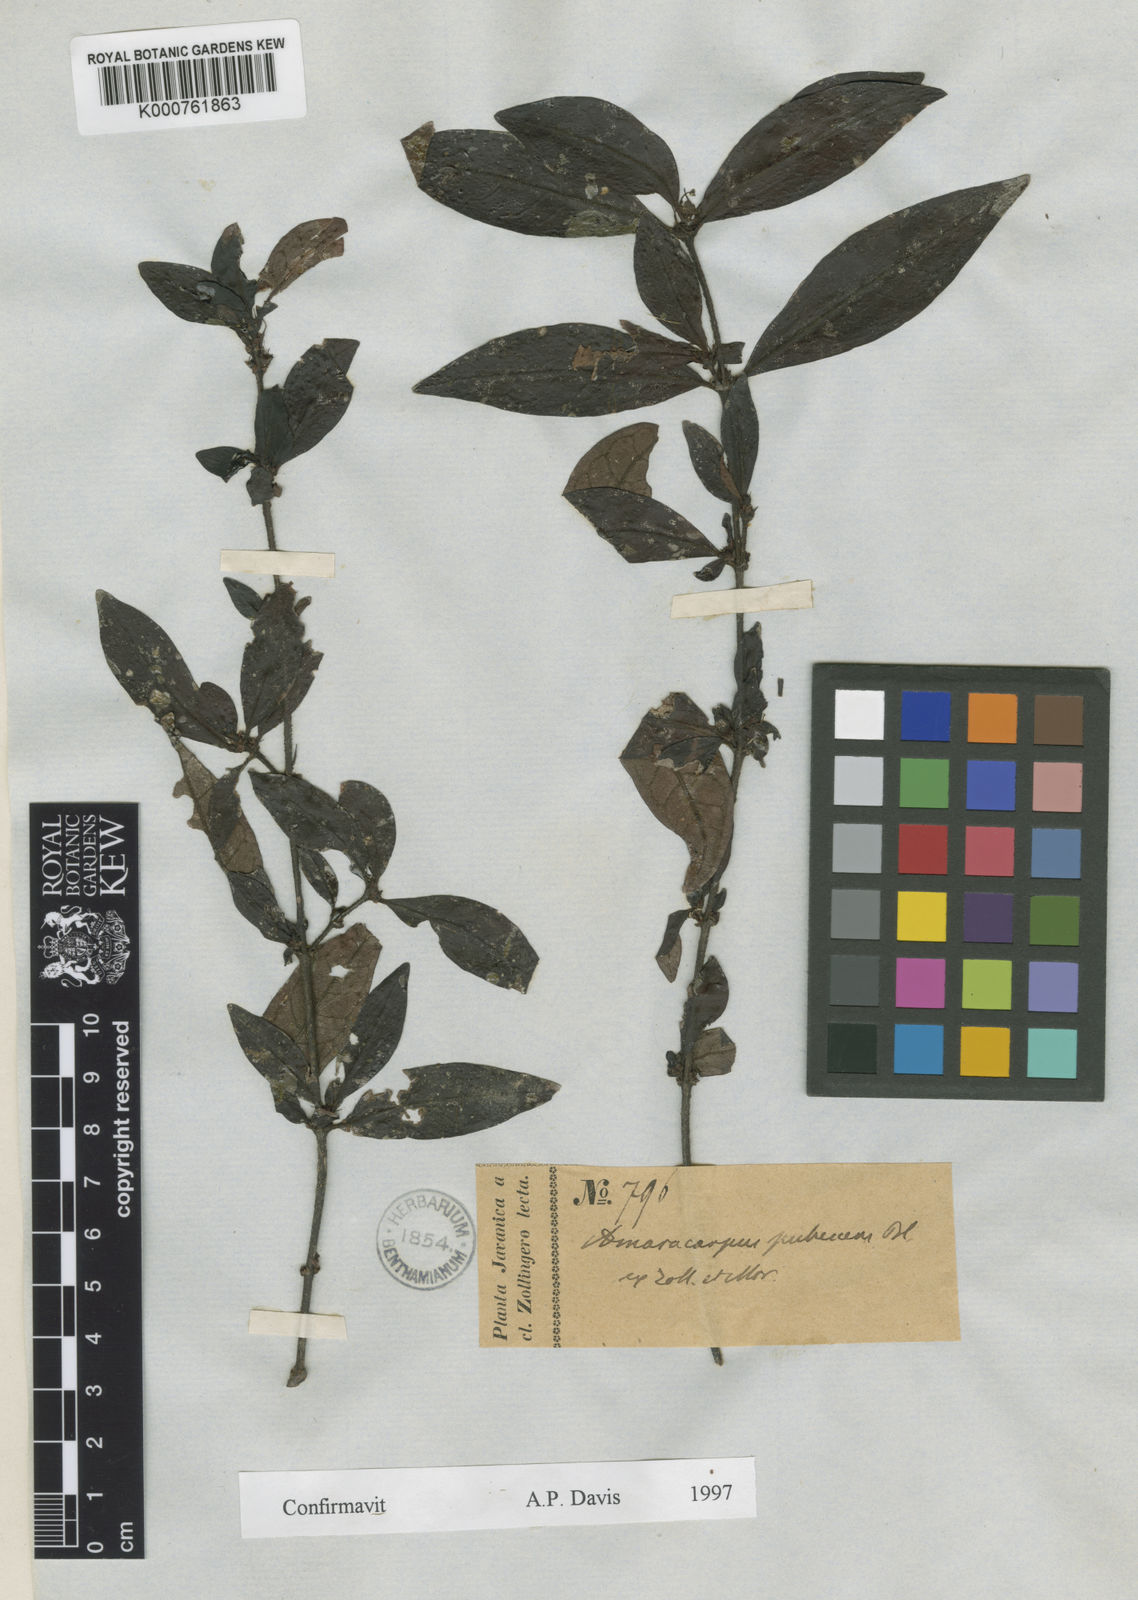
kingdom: Plantae
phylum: Tracheophyta
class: Magnoliopsida
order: Gentianales
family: Rubiaceae
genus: Amaracarpus
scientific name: Amaracarpus pubescens
